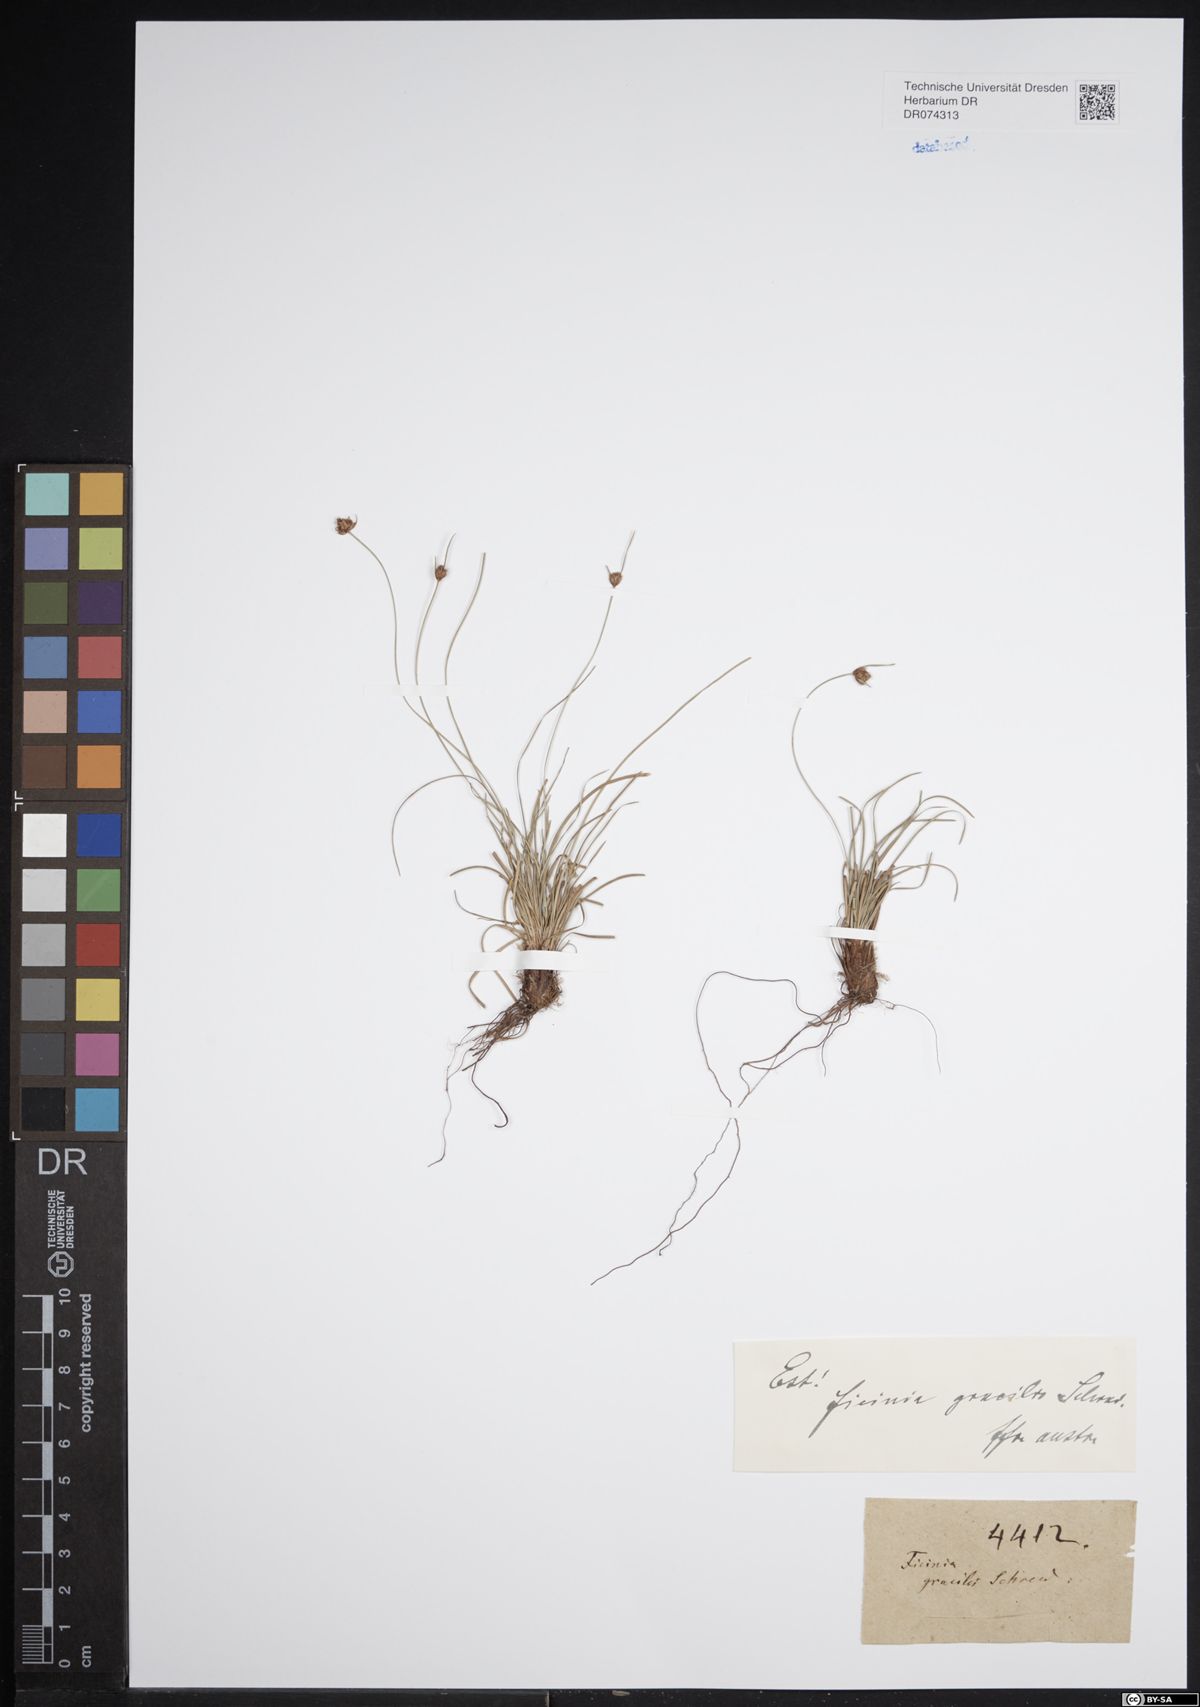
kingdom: Plantae
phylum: Tracheophyta
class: Liliopsida
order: Poales
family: Cyperaceae
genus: Ficinia
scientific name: Ficinia gracilis
